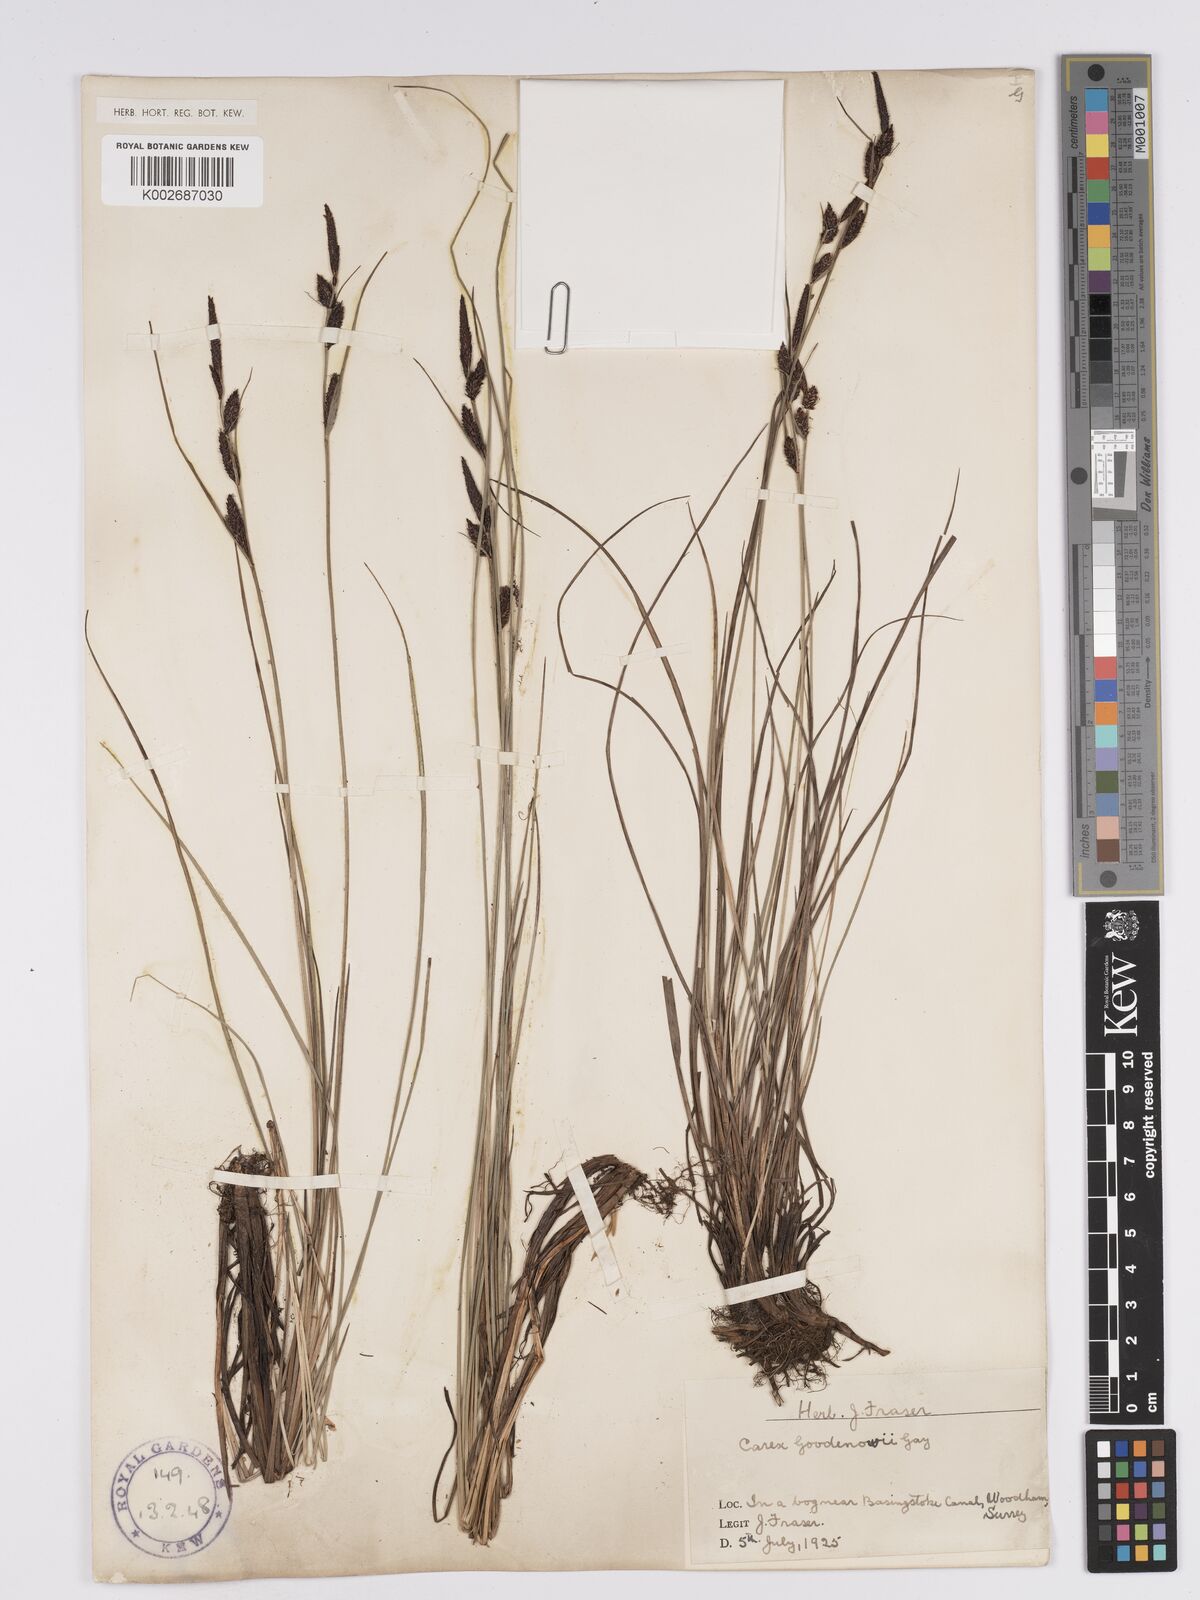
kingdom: Plantae
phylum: Tracheophyta
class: Liliopsida
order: Poales
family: Cyperaceae
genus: Carex
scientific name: Carex nigra
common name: Common sedge
